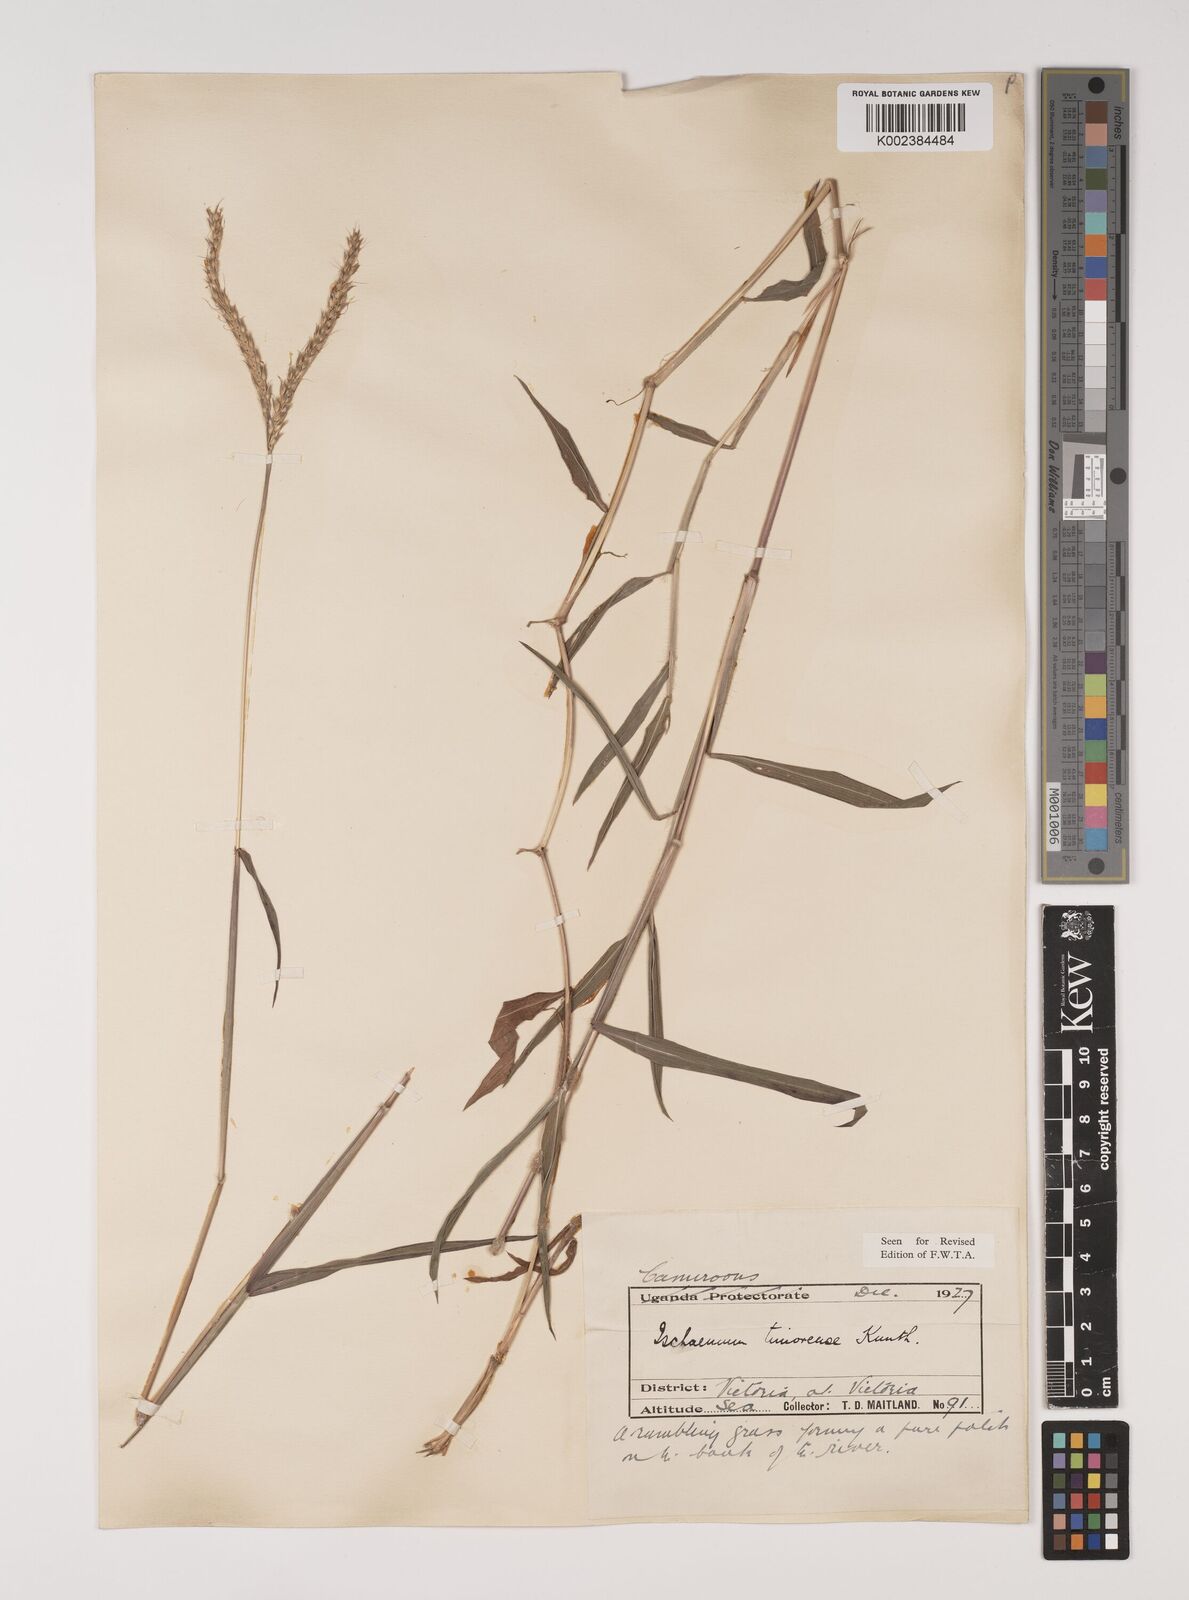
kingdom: Plantae
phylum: Tracheophyta
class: Liliopsida
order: Poales
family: Poaceae
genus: Ischaemum
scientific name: Ischaemum timorense
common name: Stalkleaf murainagrass
